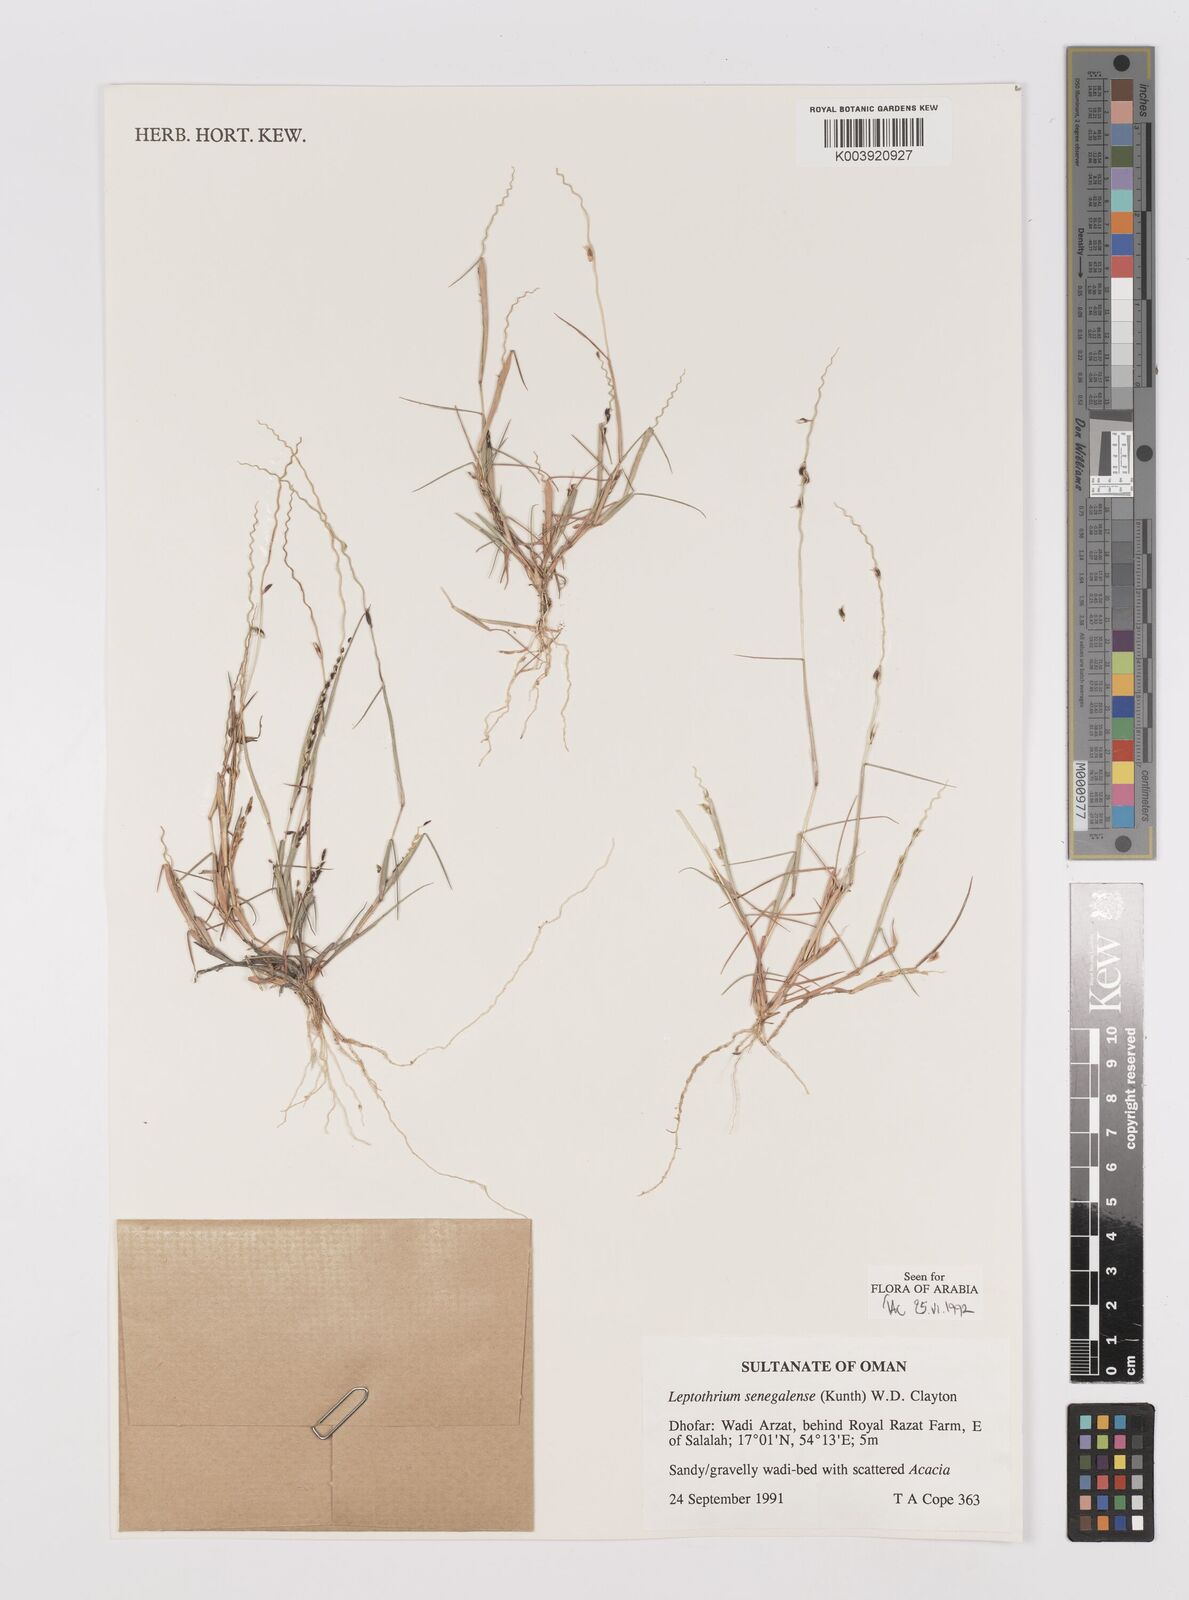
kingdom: Plantae
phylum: Tracheophyta
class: Liliopsida
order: Poales
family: Poaceae
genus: Leptothrium
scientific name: Leptothrium senegalense
